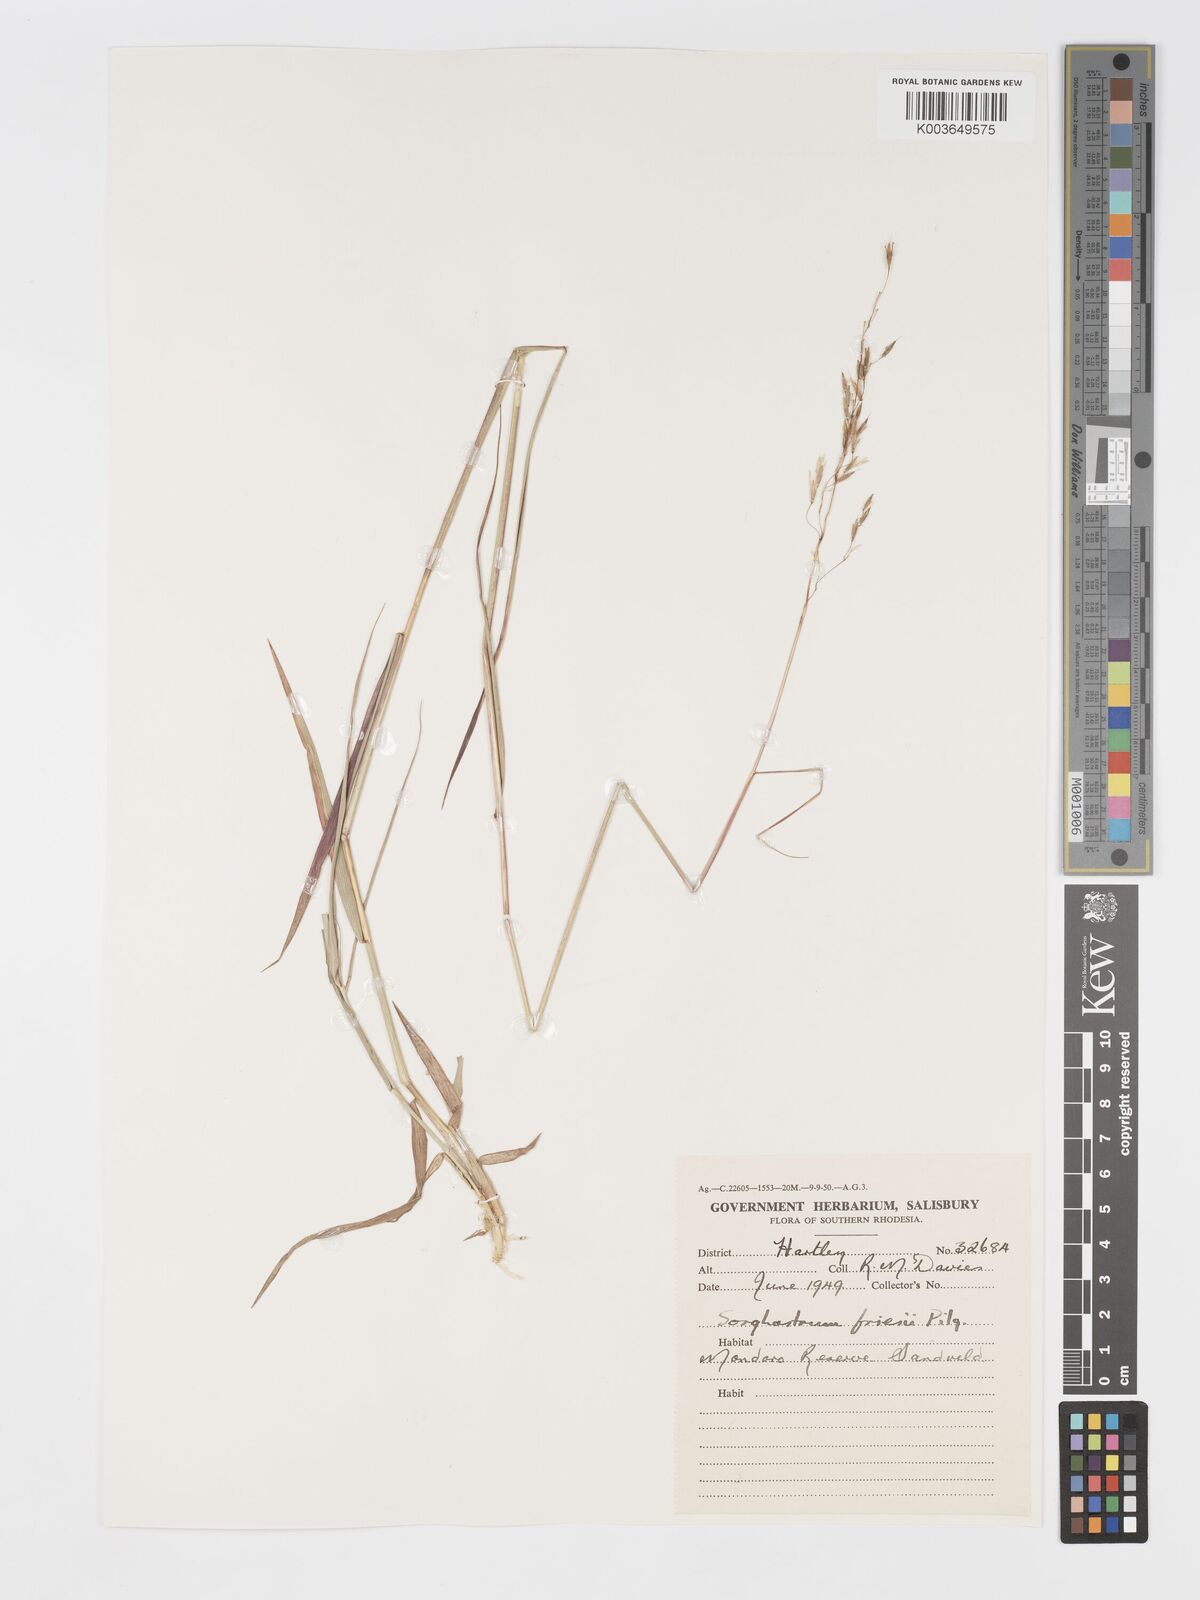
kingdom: Plantae
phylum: Tracheophyta
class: Liliopsida
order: Poales
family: Poaceae
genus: Sorghastrum
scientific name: Sorghastrum nudipes
